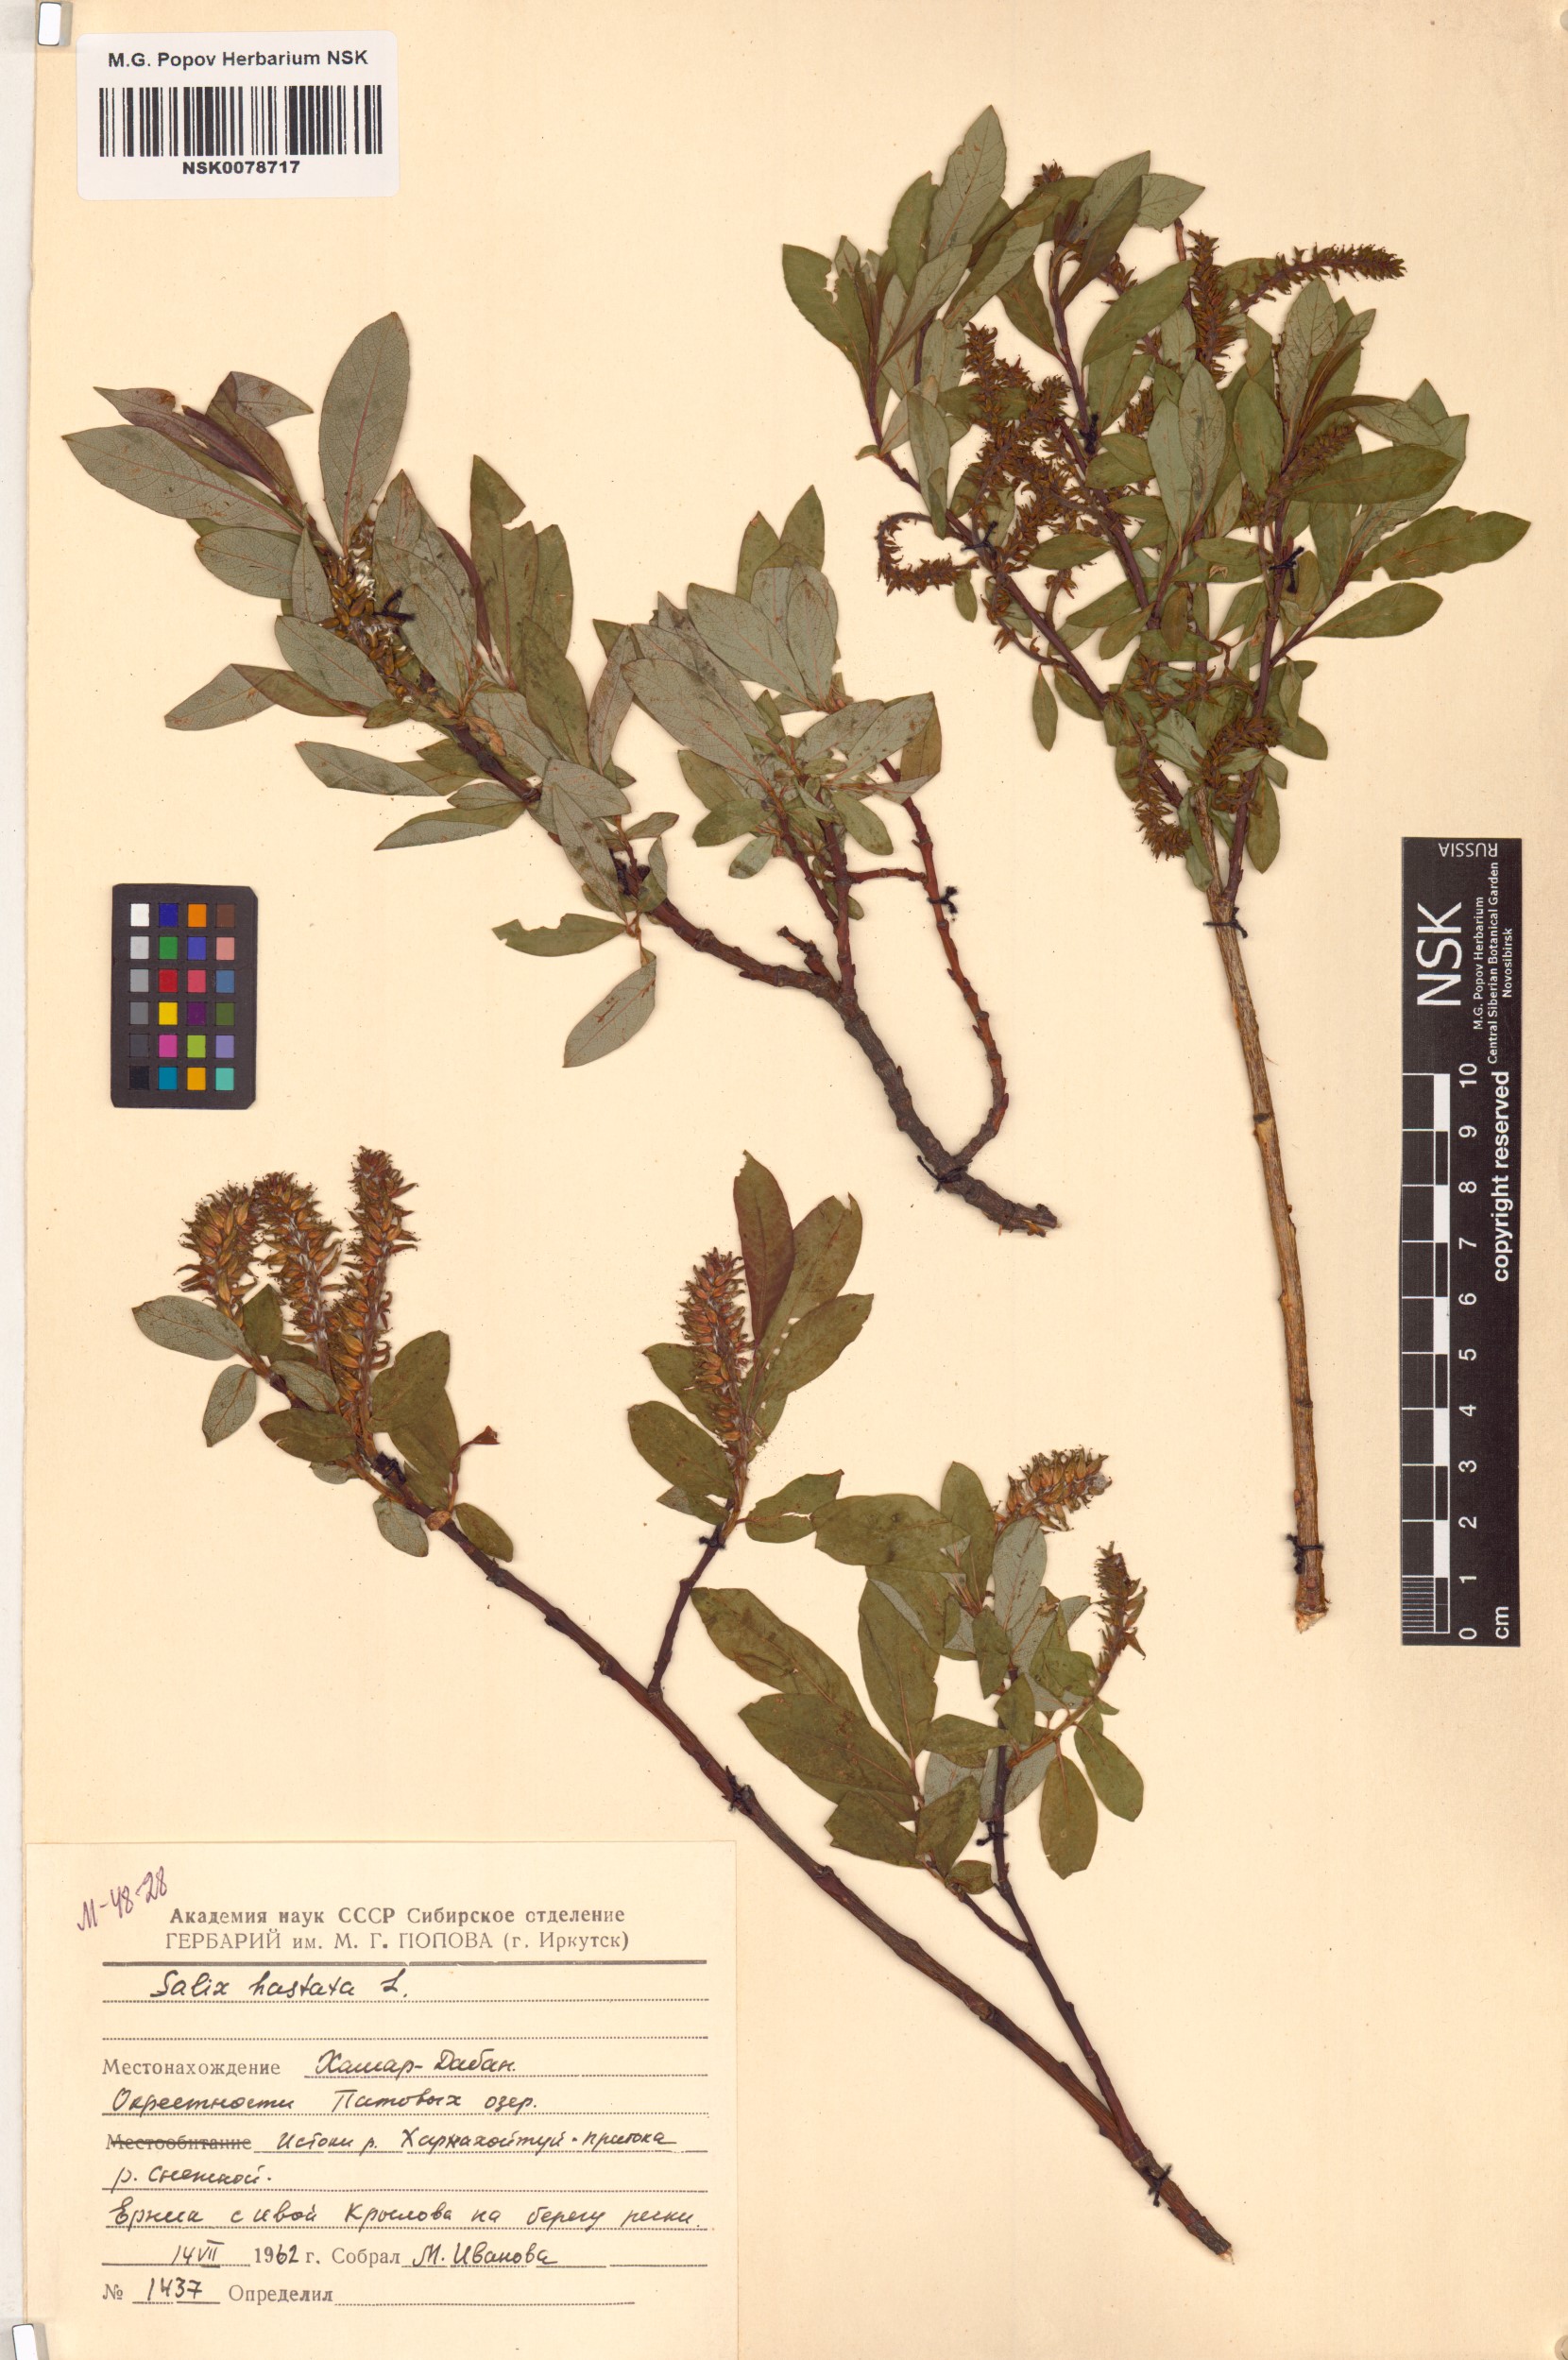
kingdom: Plantae
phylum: Tracheophyta
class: Magnoliopsida
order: Malpighiales
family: Salicaceae
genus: Salix
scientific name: Salix hastata
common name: Halberd willow
